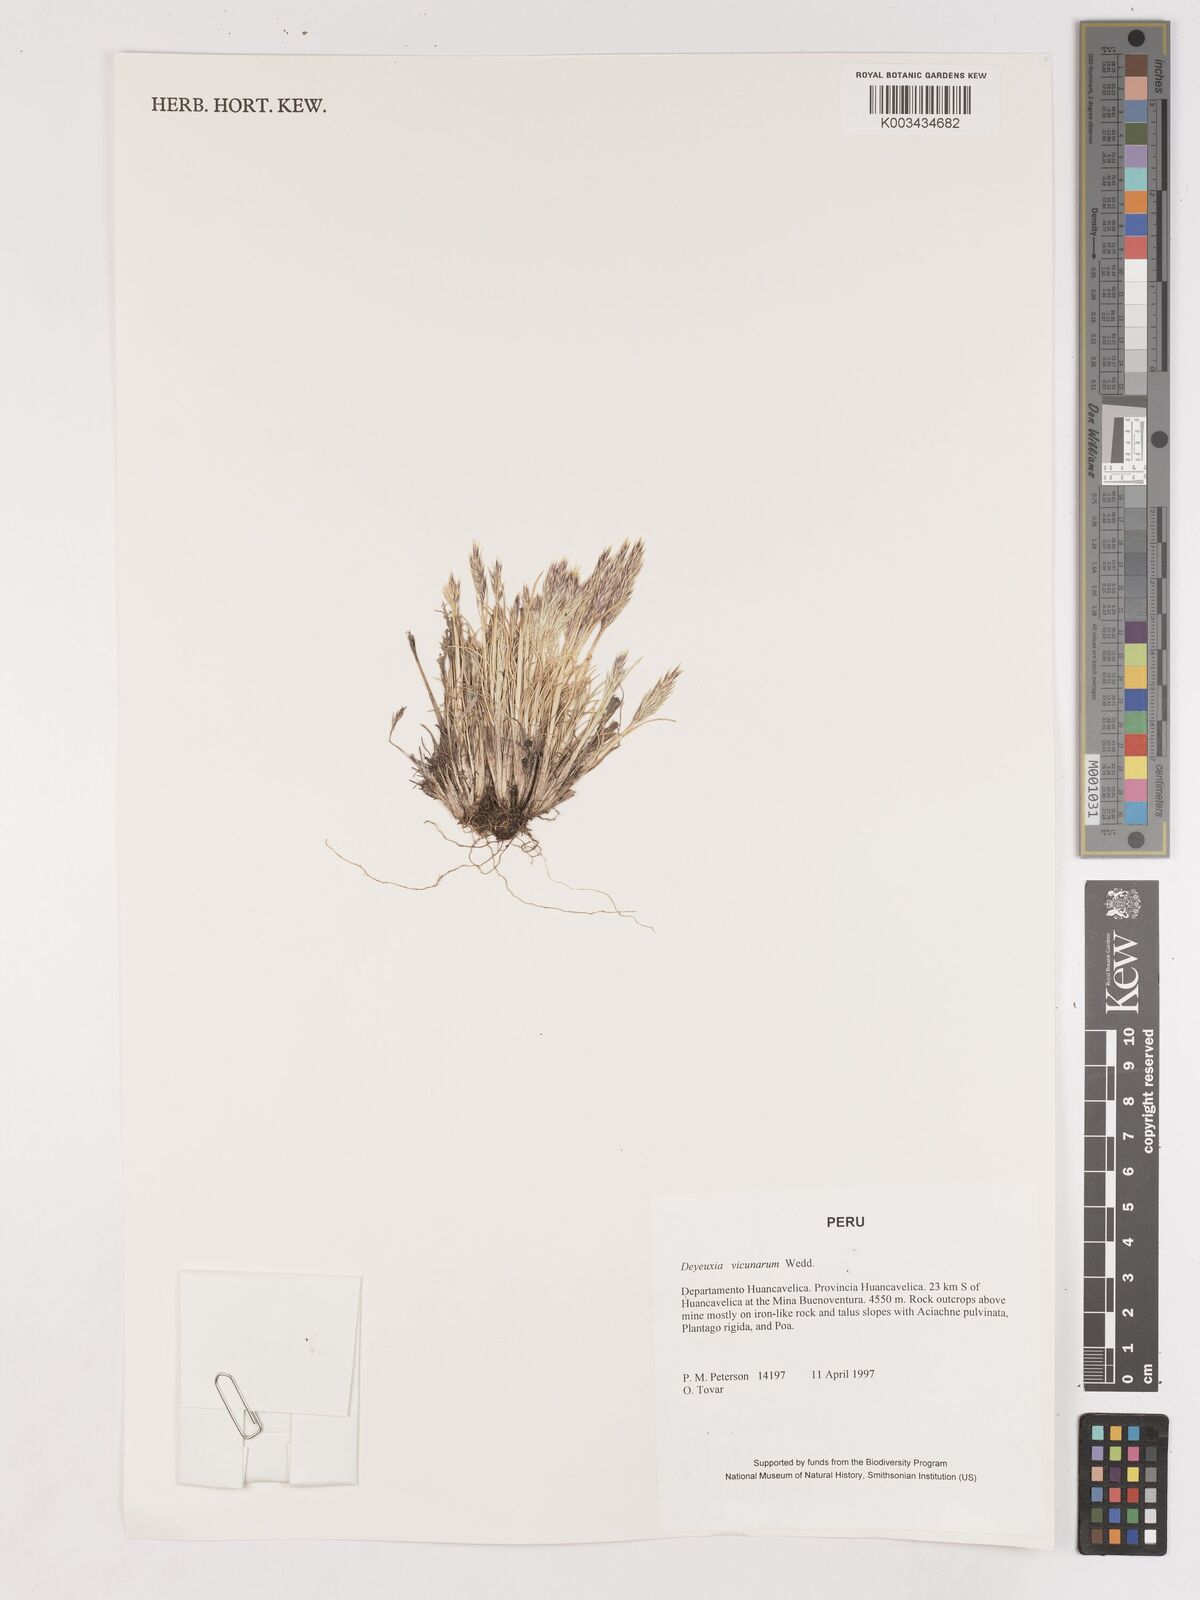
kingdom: Plantae
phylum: Tracheophyta
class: Liliopsida
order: Poales
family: Poaceae
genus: Cinnagrostis
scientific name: Cinnagrostis vicunarum
